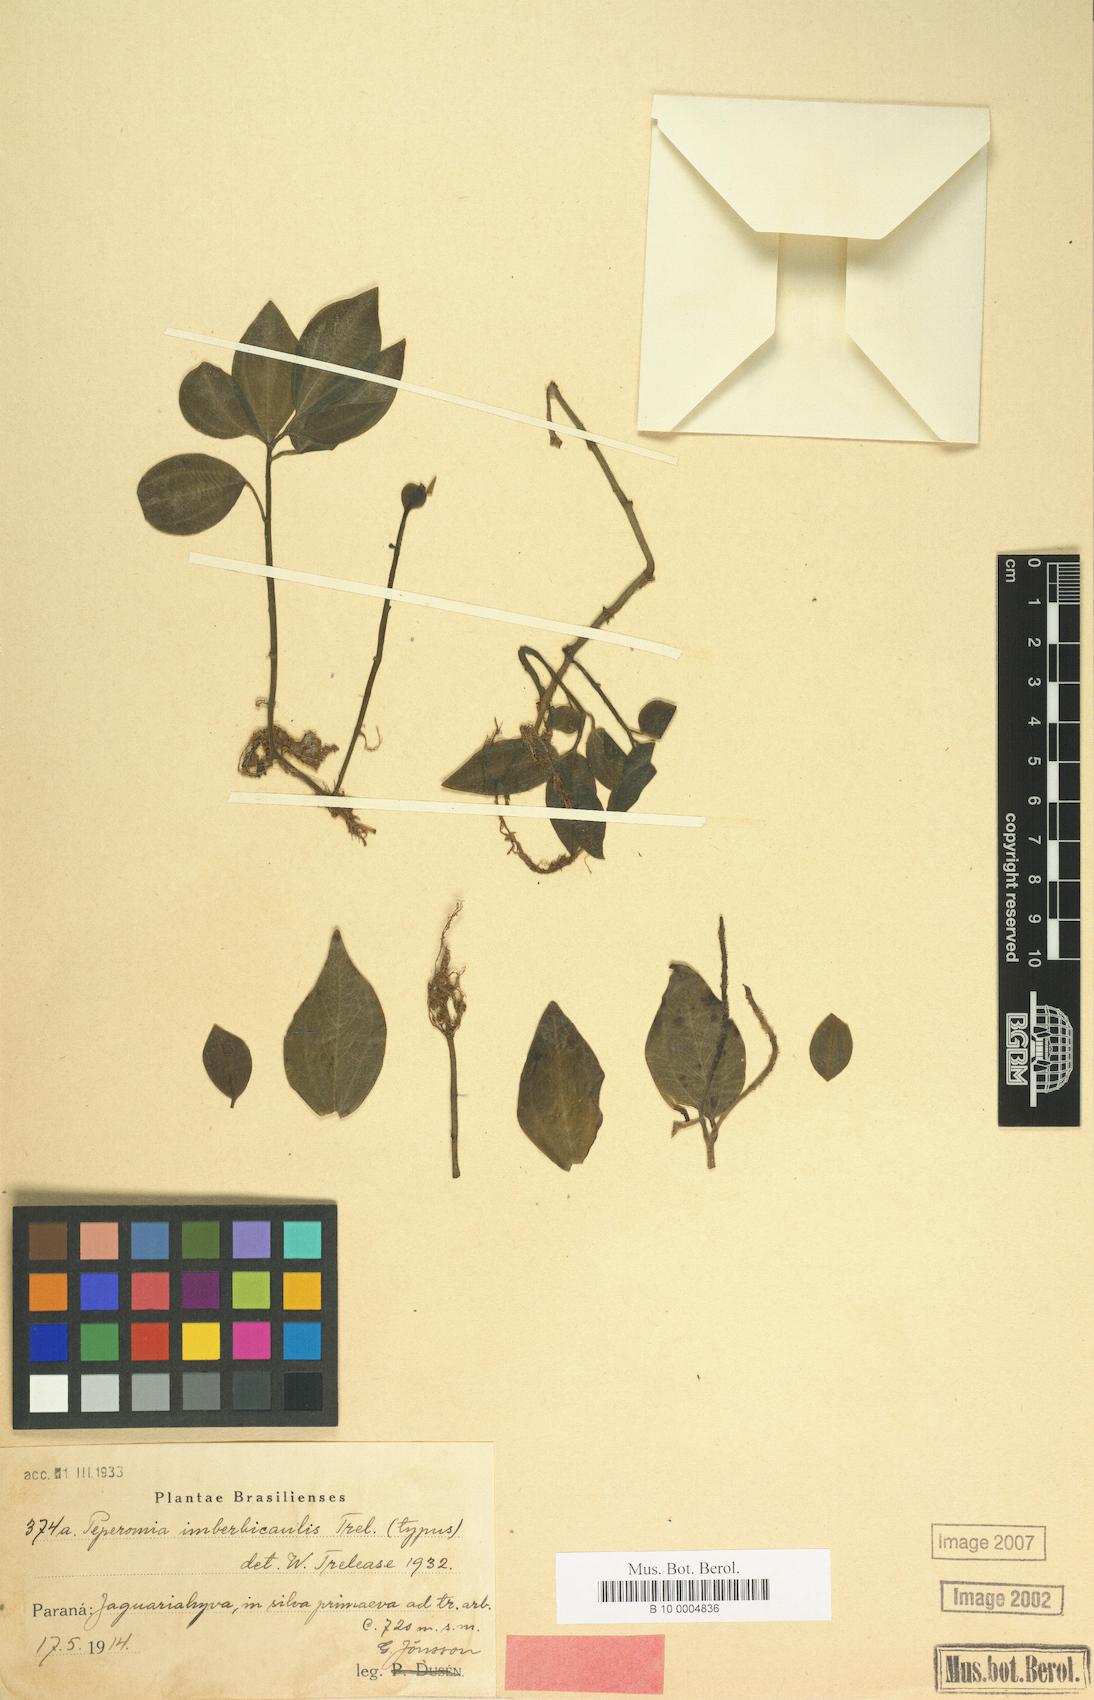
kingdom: Plantae
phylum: Tracheophyta
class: Magnoliopsida
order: Piperales
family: Piperaceae
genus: Peperomia
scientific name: Peperomia
